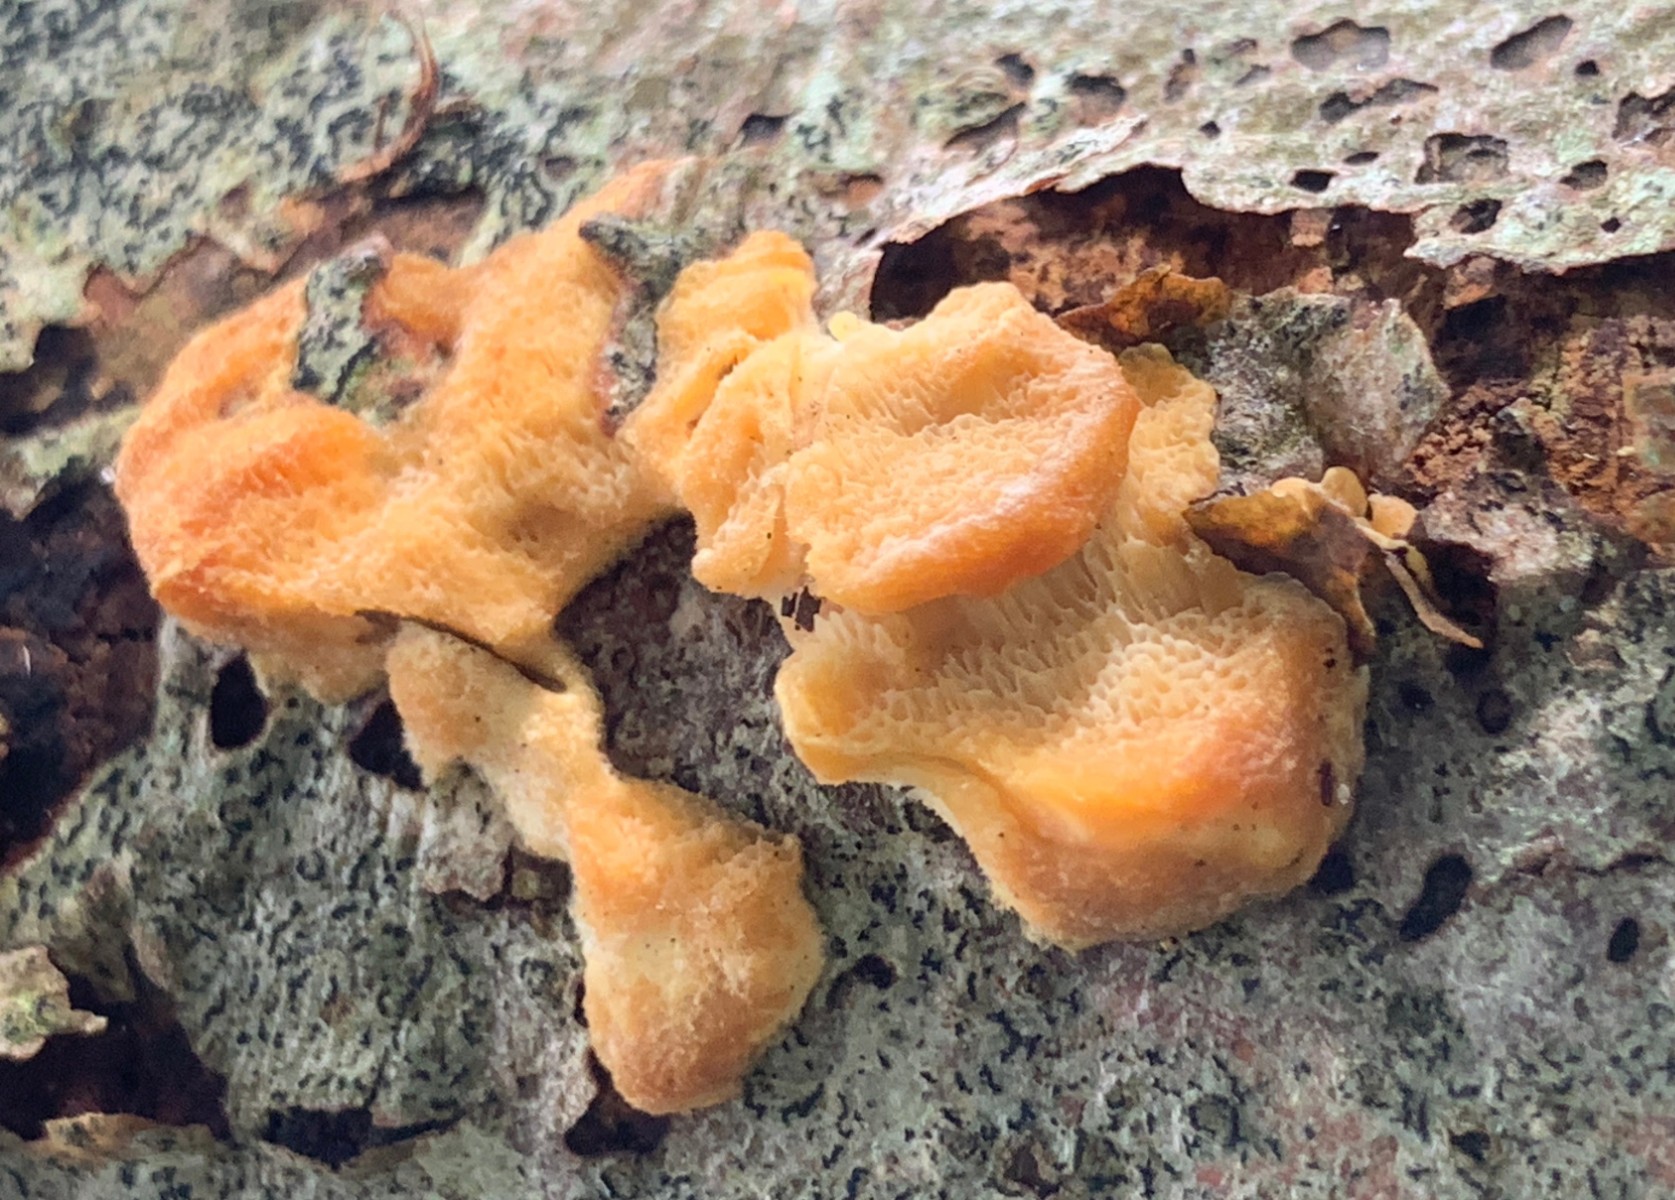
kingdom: Fungi
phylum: Basidiomycota
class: Agaricomycetes
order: Polyporales
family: Steccherinaceae
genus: Antrodiella
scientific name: Antrodiella serpula
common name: gulrandet elastikporesvamp
